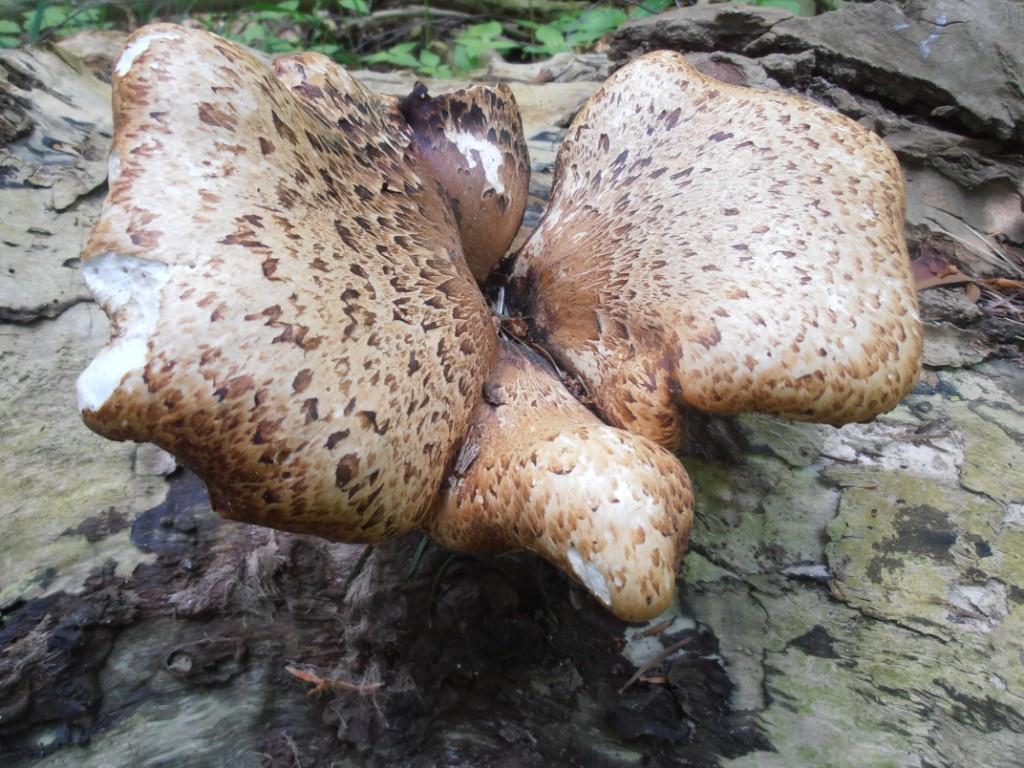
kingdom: Fungi
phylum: Basidiomycota
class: Agaricomycetes
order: Polyporales
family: Polyporaceae
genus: Cerioporus
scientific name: Cerioporus squamosus
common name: skællet stilkporesvamp
